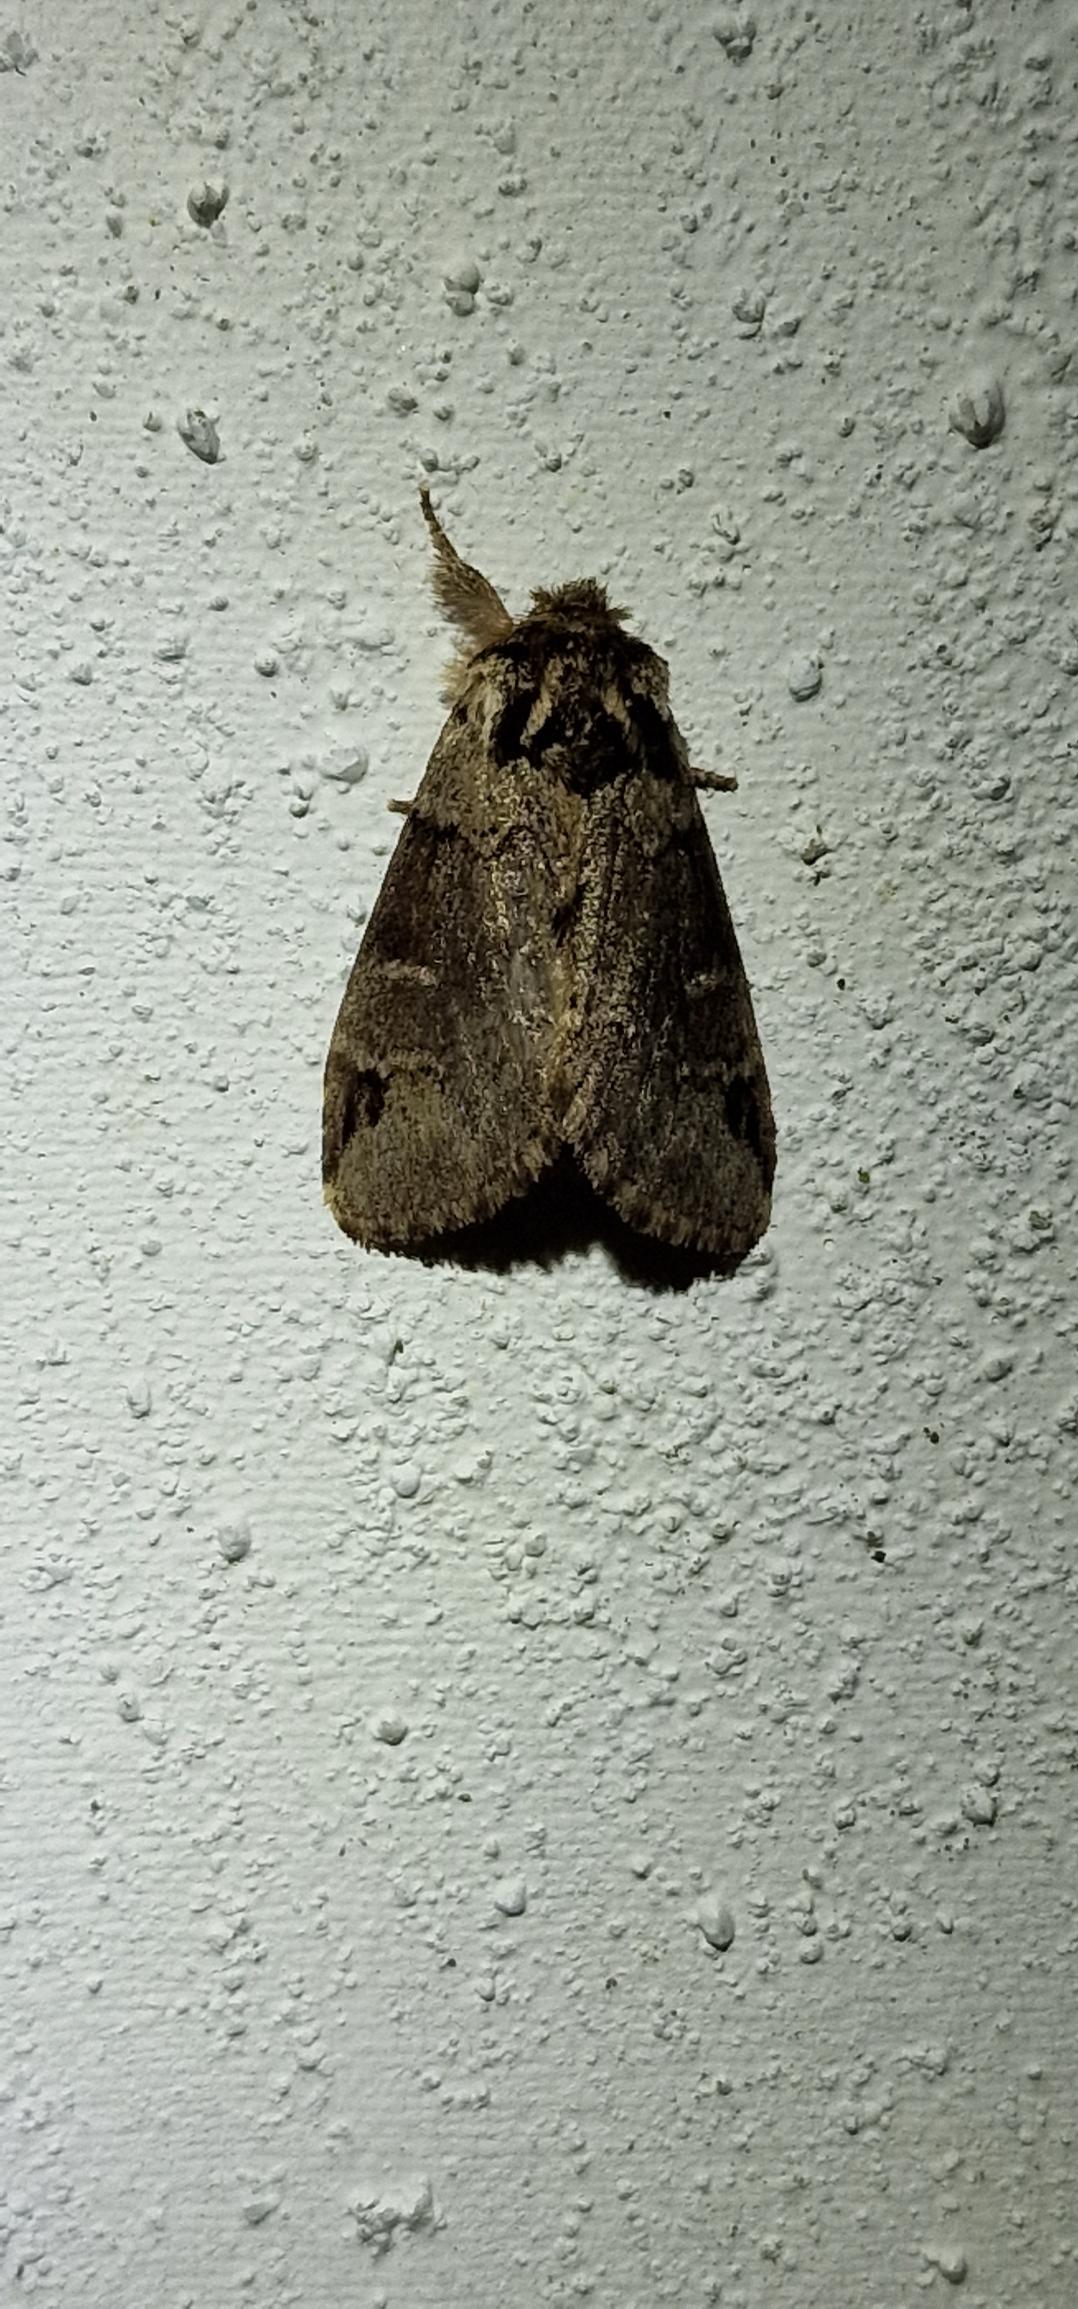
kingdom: Animalia
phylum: Arthropoda
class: Insecta
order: Lepidoptera
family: Notodontidae
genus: Drymonia
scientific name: Drymonia obliterata
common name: Bøgeskovspinder
